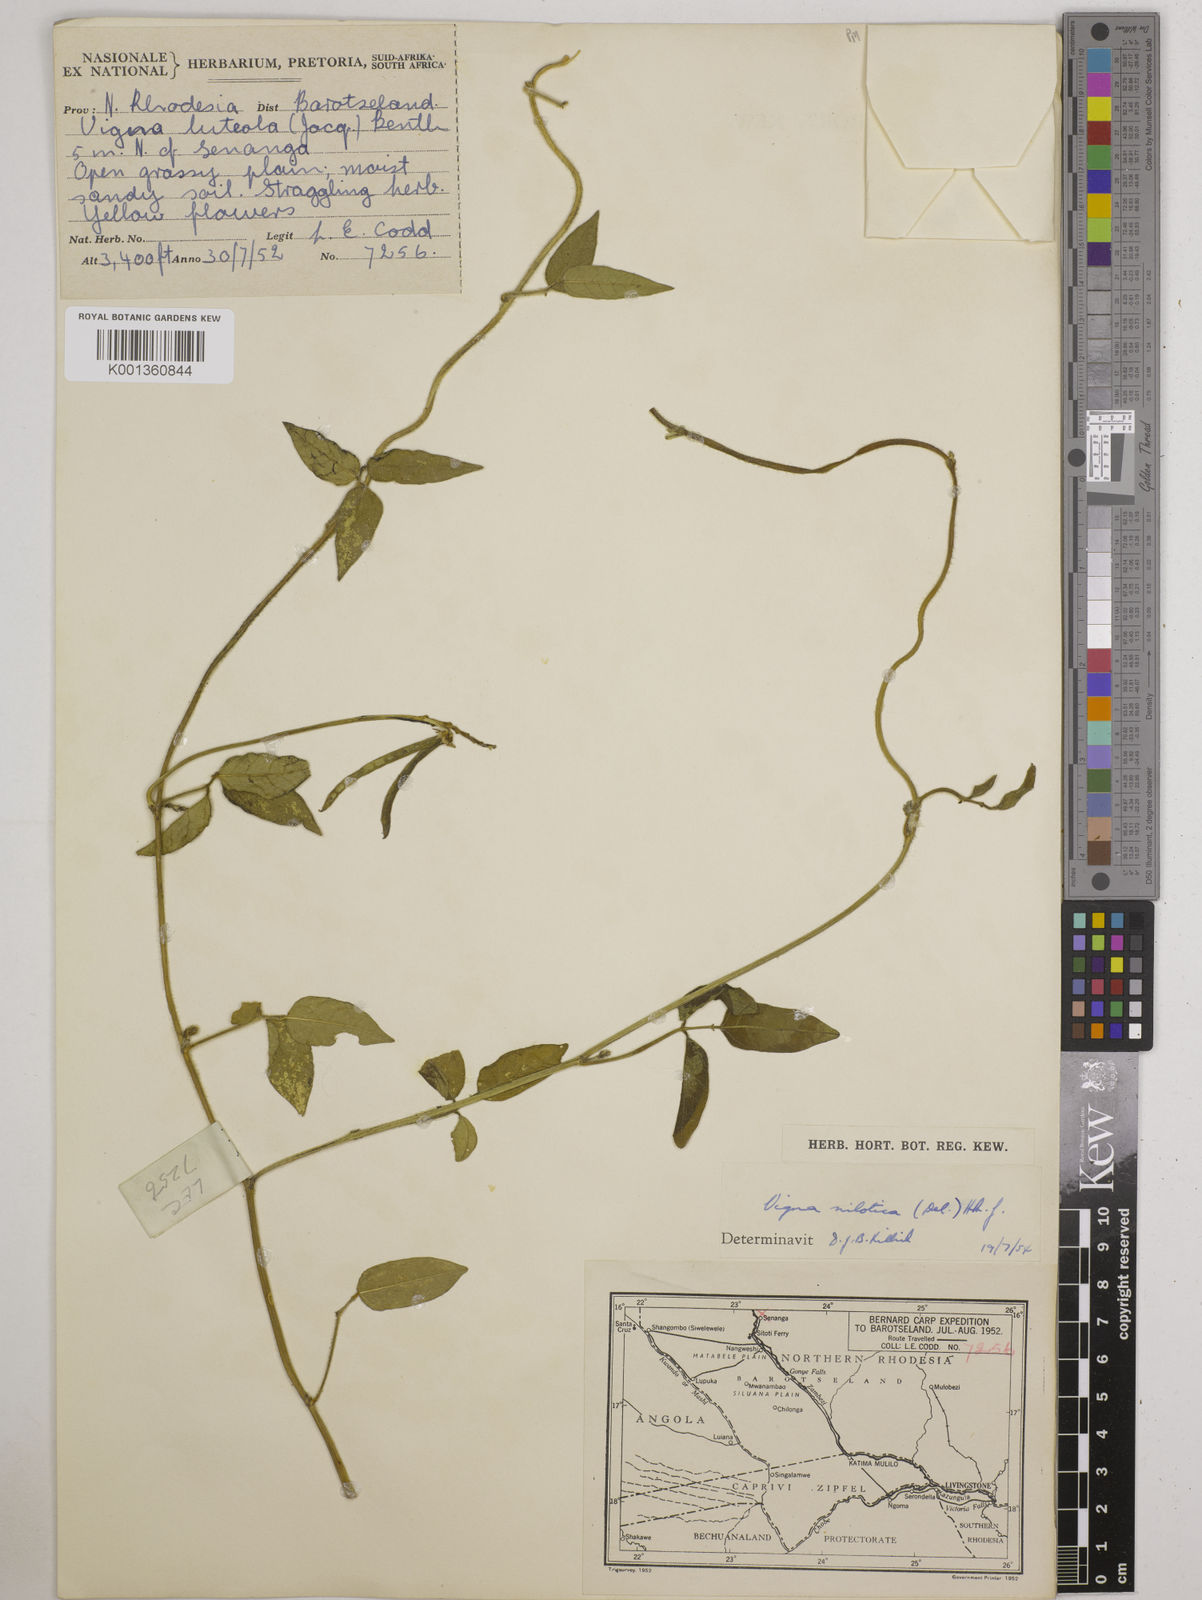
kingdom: Plantae
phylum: Tracheophyta
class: Magnoliopsida
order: Fabales
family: Fabaceae
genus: Vigna
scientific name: Vigna luteola
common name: Hairypod cowpea
